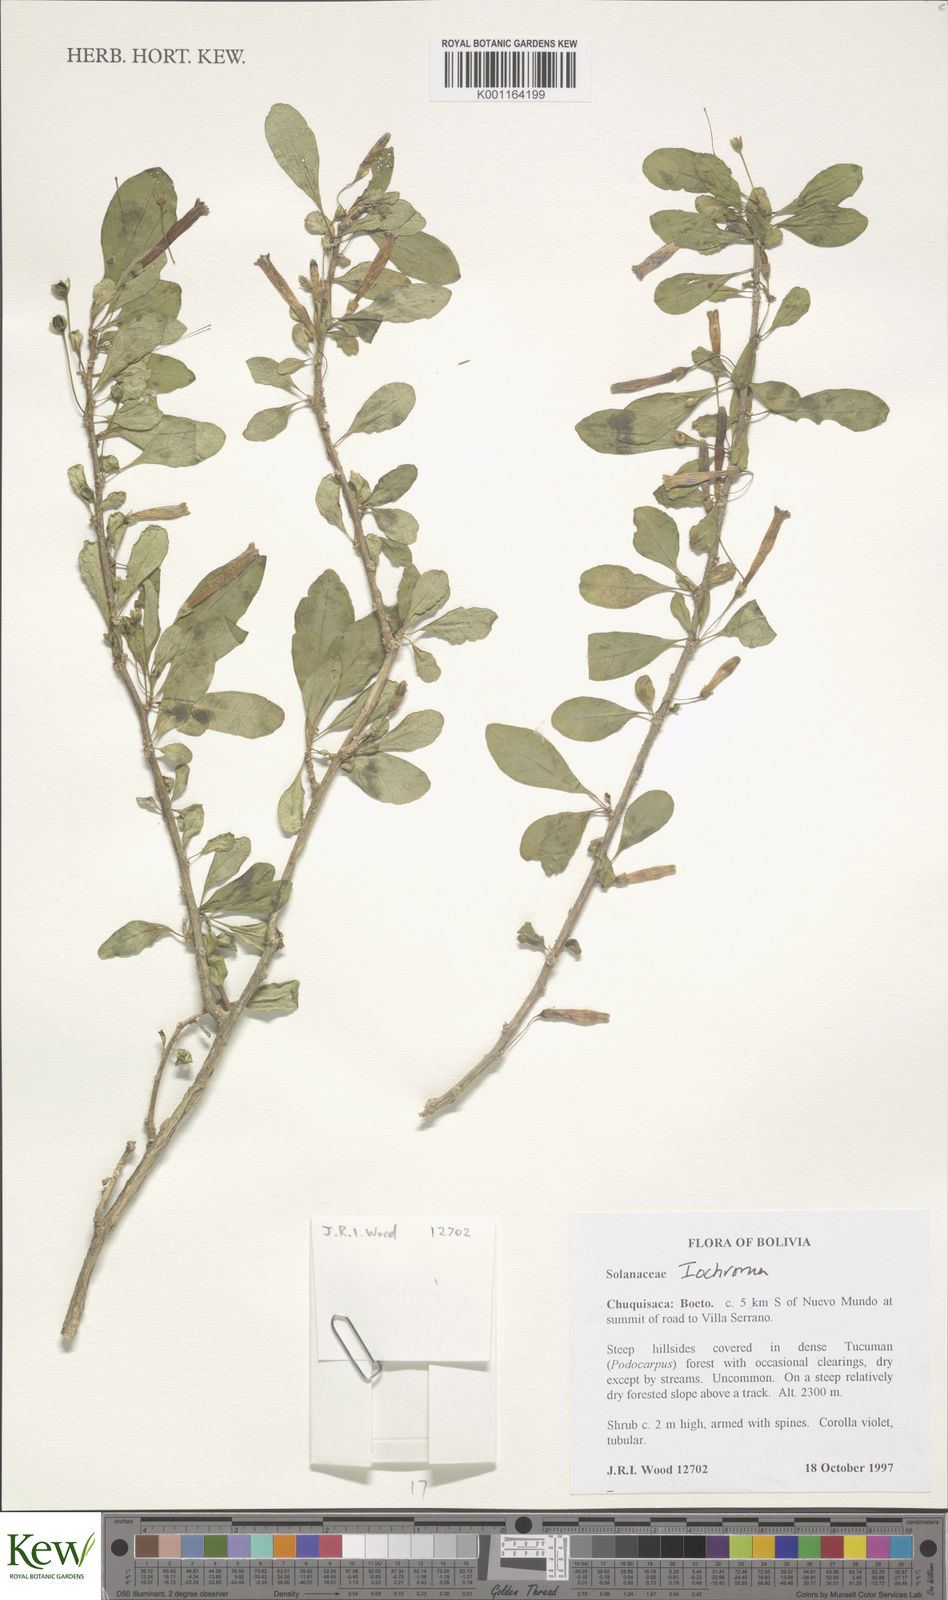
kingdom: Plantae
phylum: Tracheophyta
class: Magnoliopsida
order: Solanales
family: Solanaceae
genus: Solanum
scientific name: Solanum
